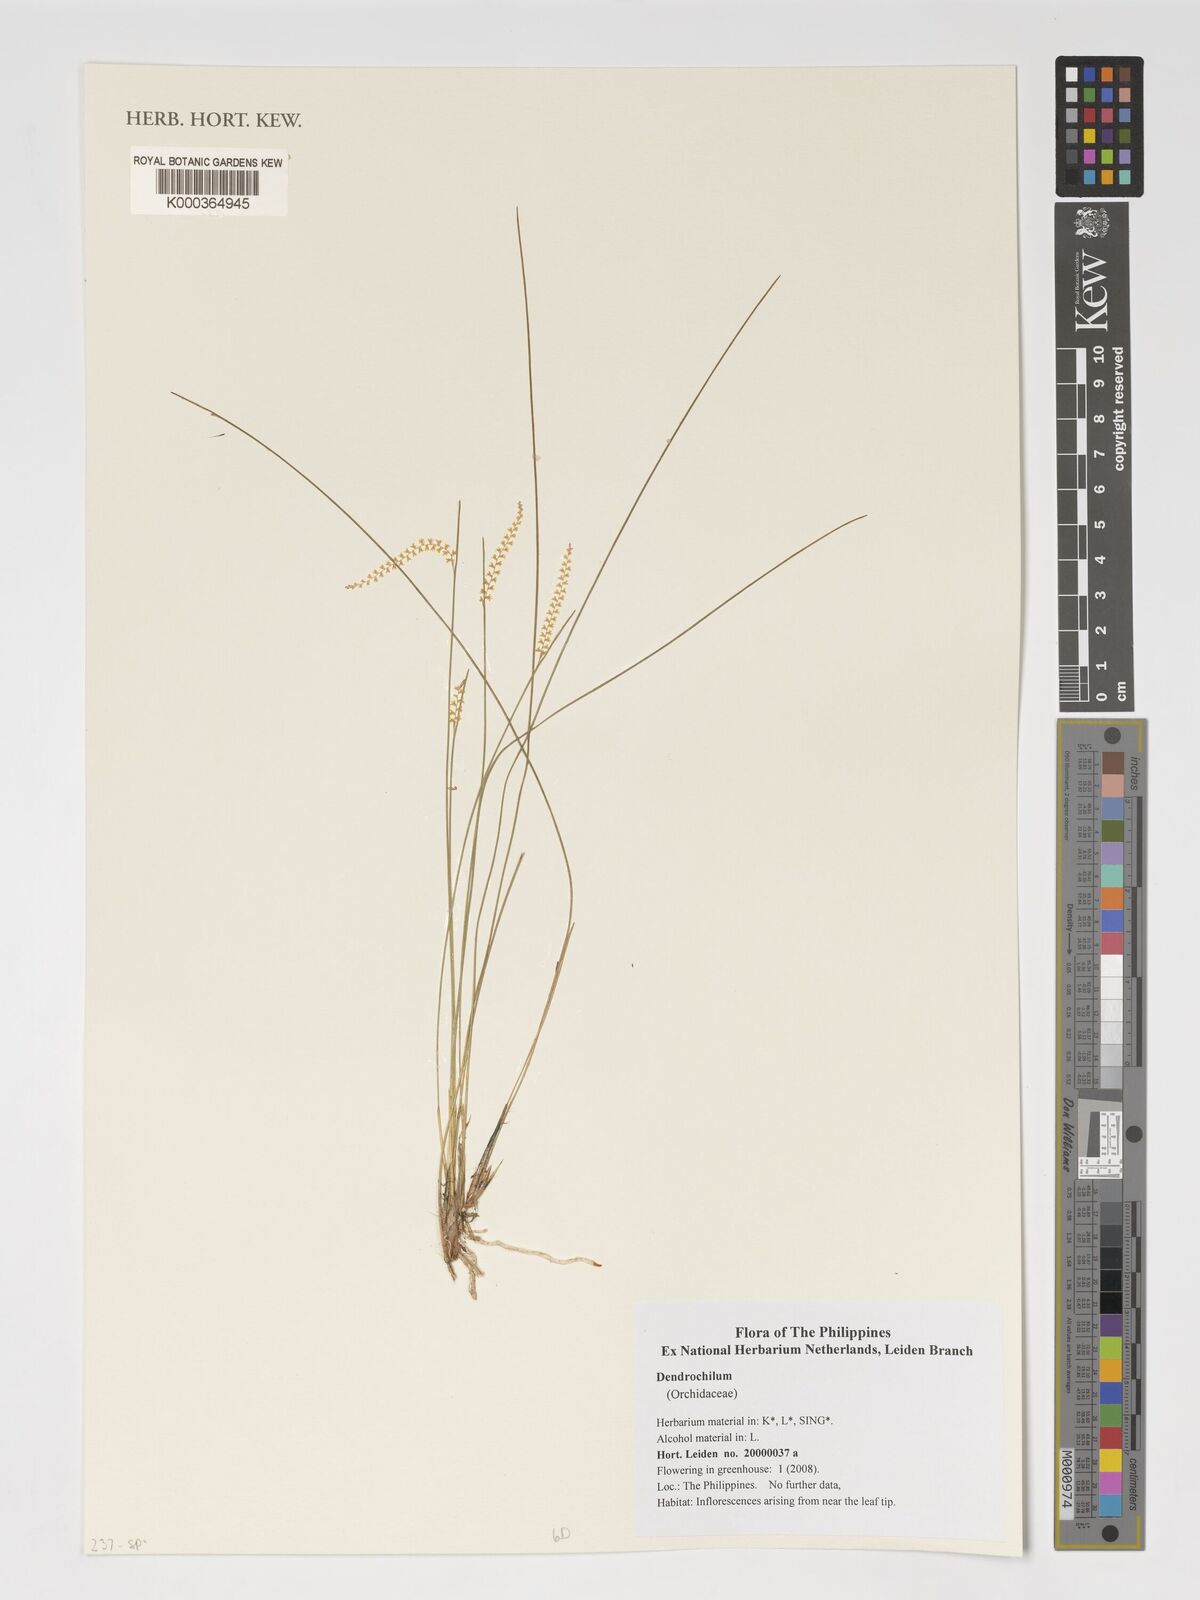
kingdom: Plantae
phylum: Tracheophyta
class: Liliopsida
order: Asparagales
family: Orchidaceae
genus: Coelogyne
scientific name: Coelogyne
